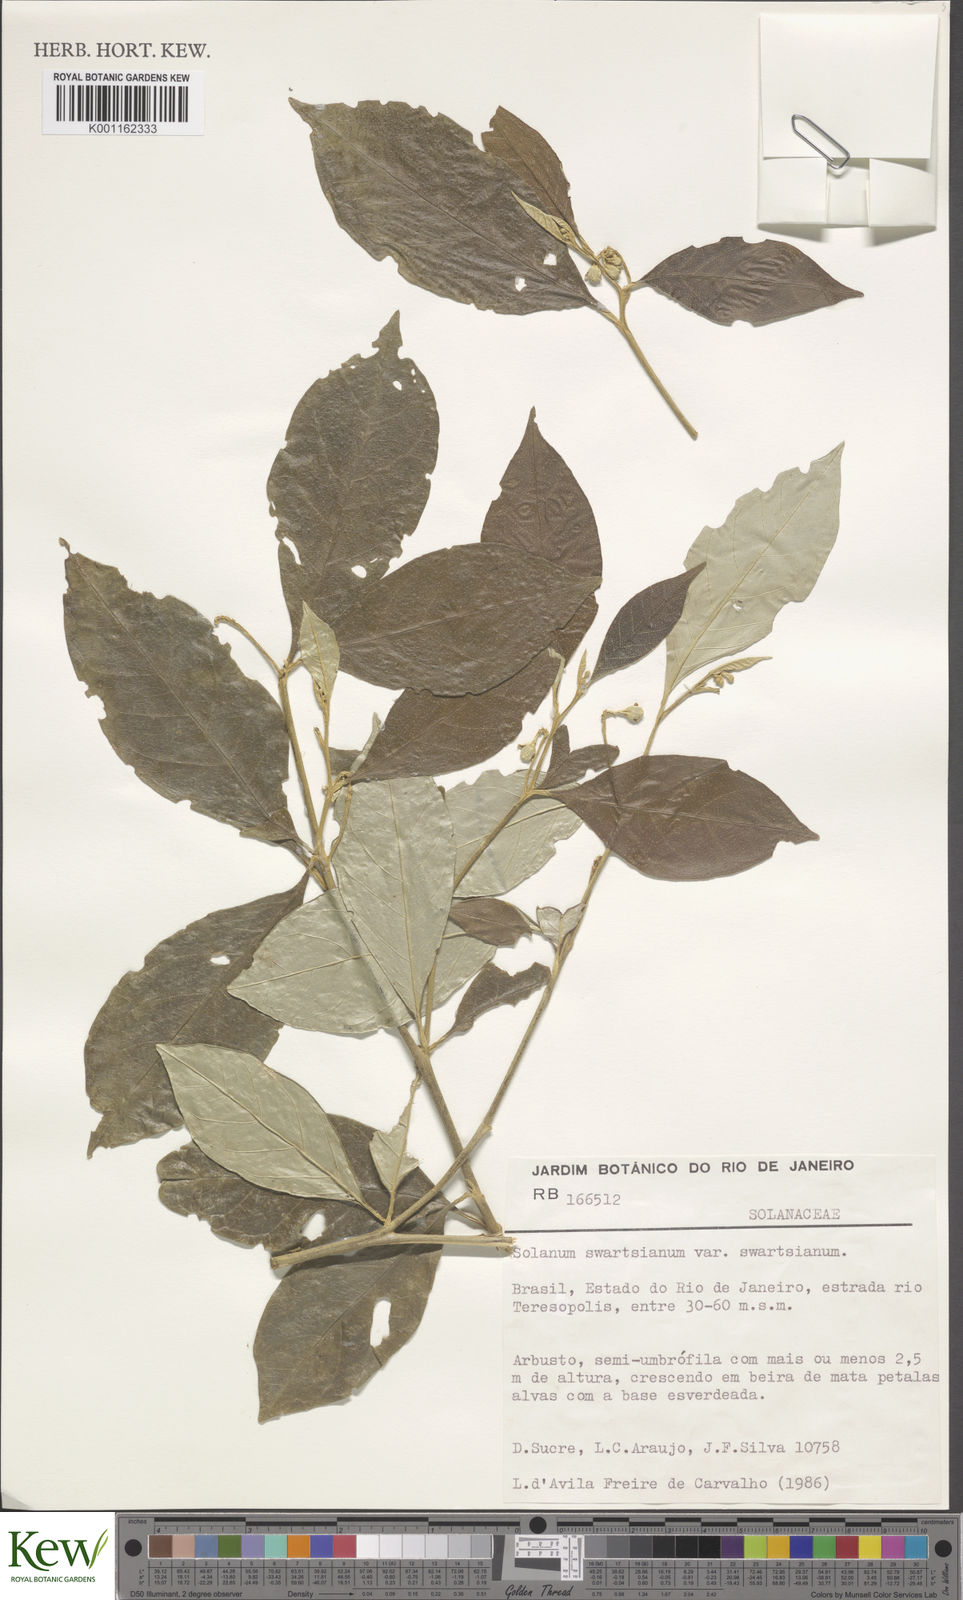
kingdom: Plantae
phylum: Tracheophyta
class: Magnoliopsida
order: Solanales
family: Solanaceae
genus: Solanum
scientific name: Solanum swartzianum
